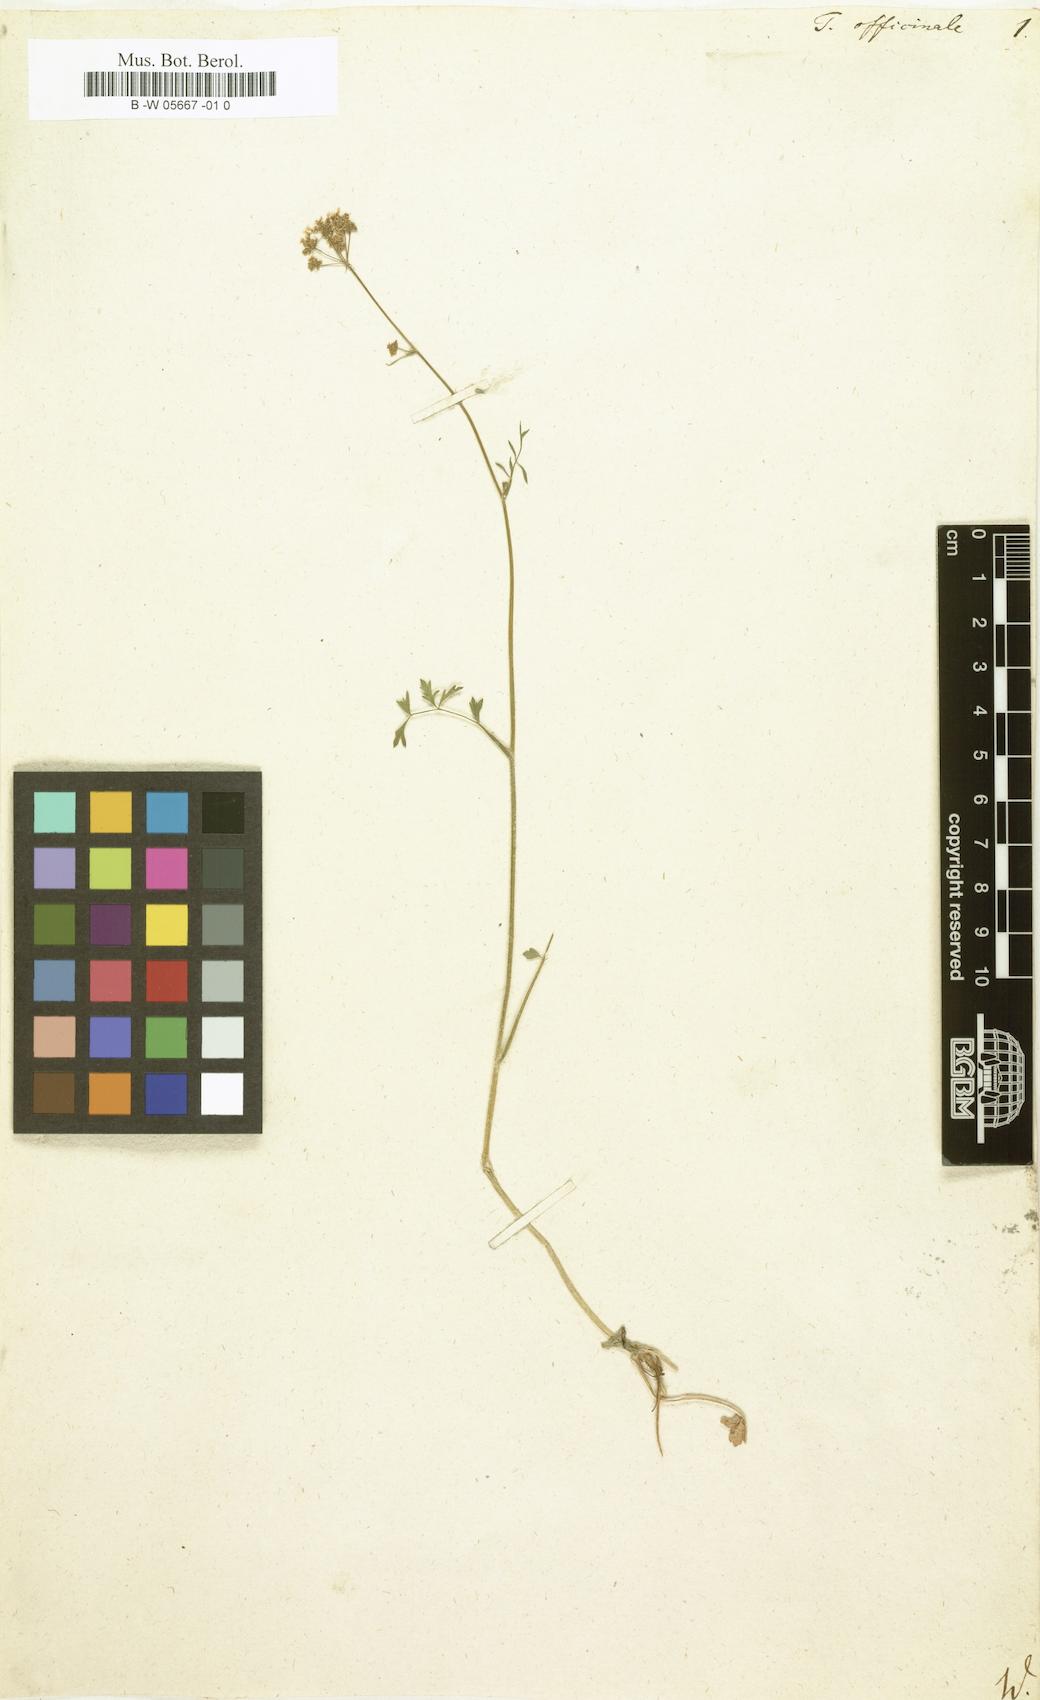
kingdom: Plantae
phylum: Tracheophyta
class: Magnoliopsida
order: Apiales
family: Apiaceae
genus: Tordylium
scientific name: Tordylium officinale
